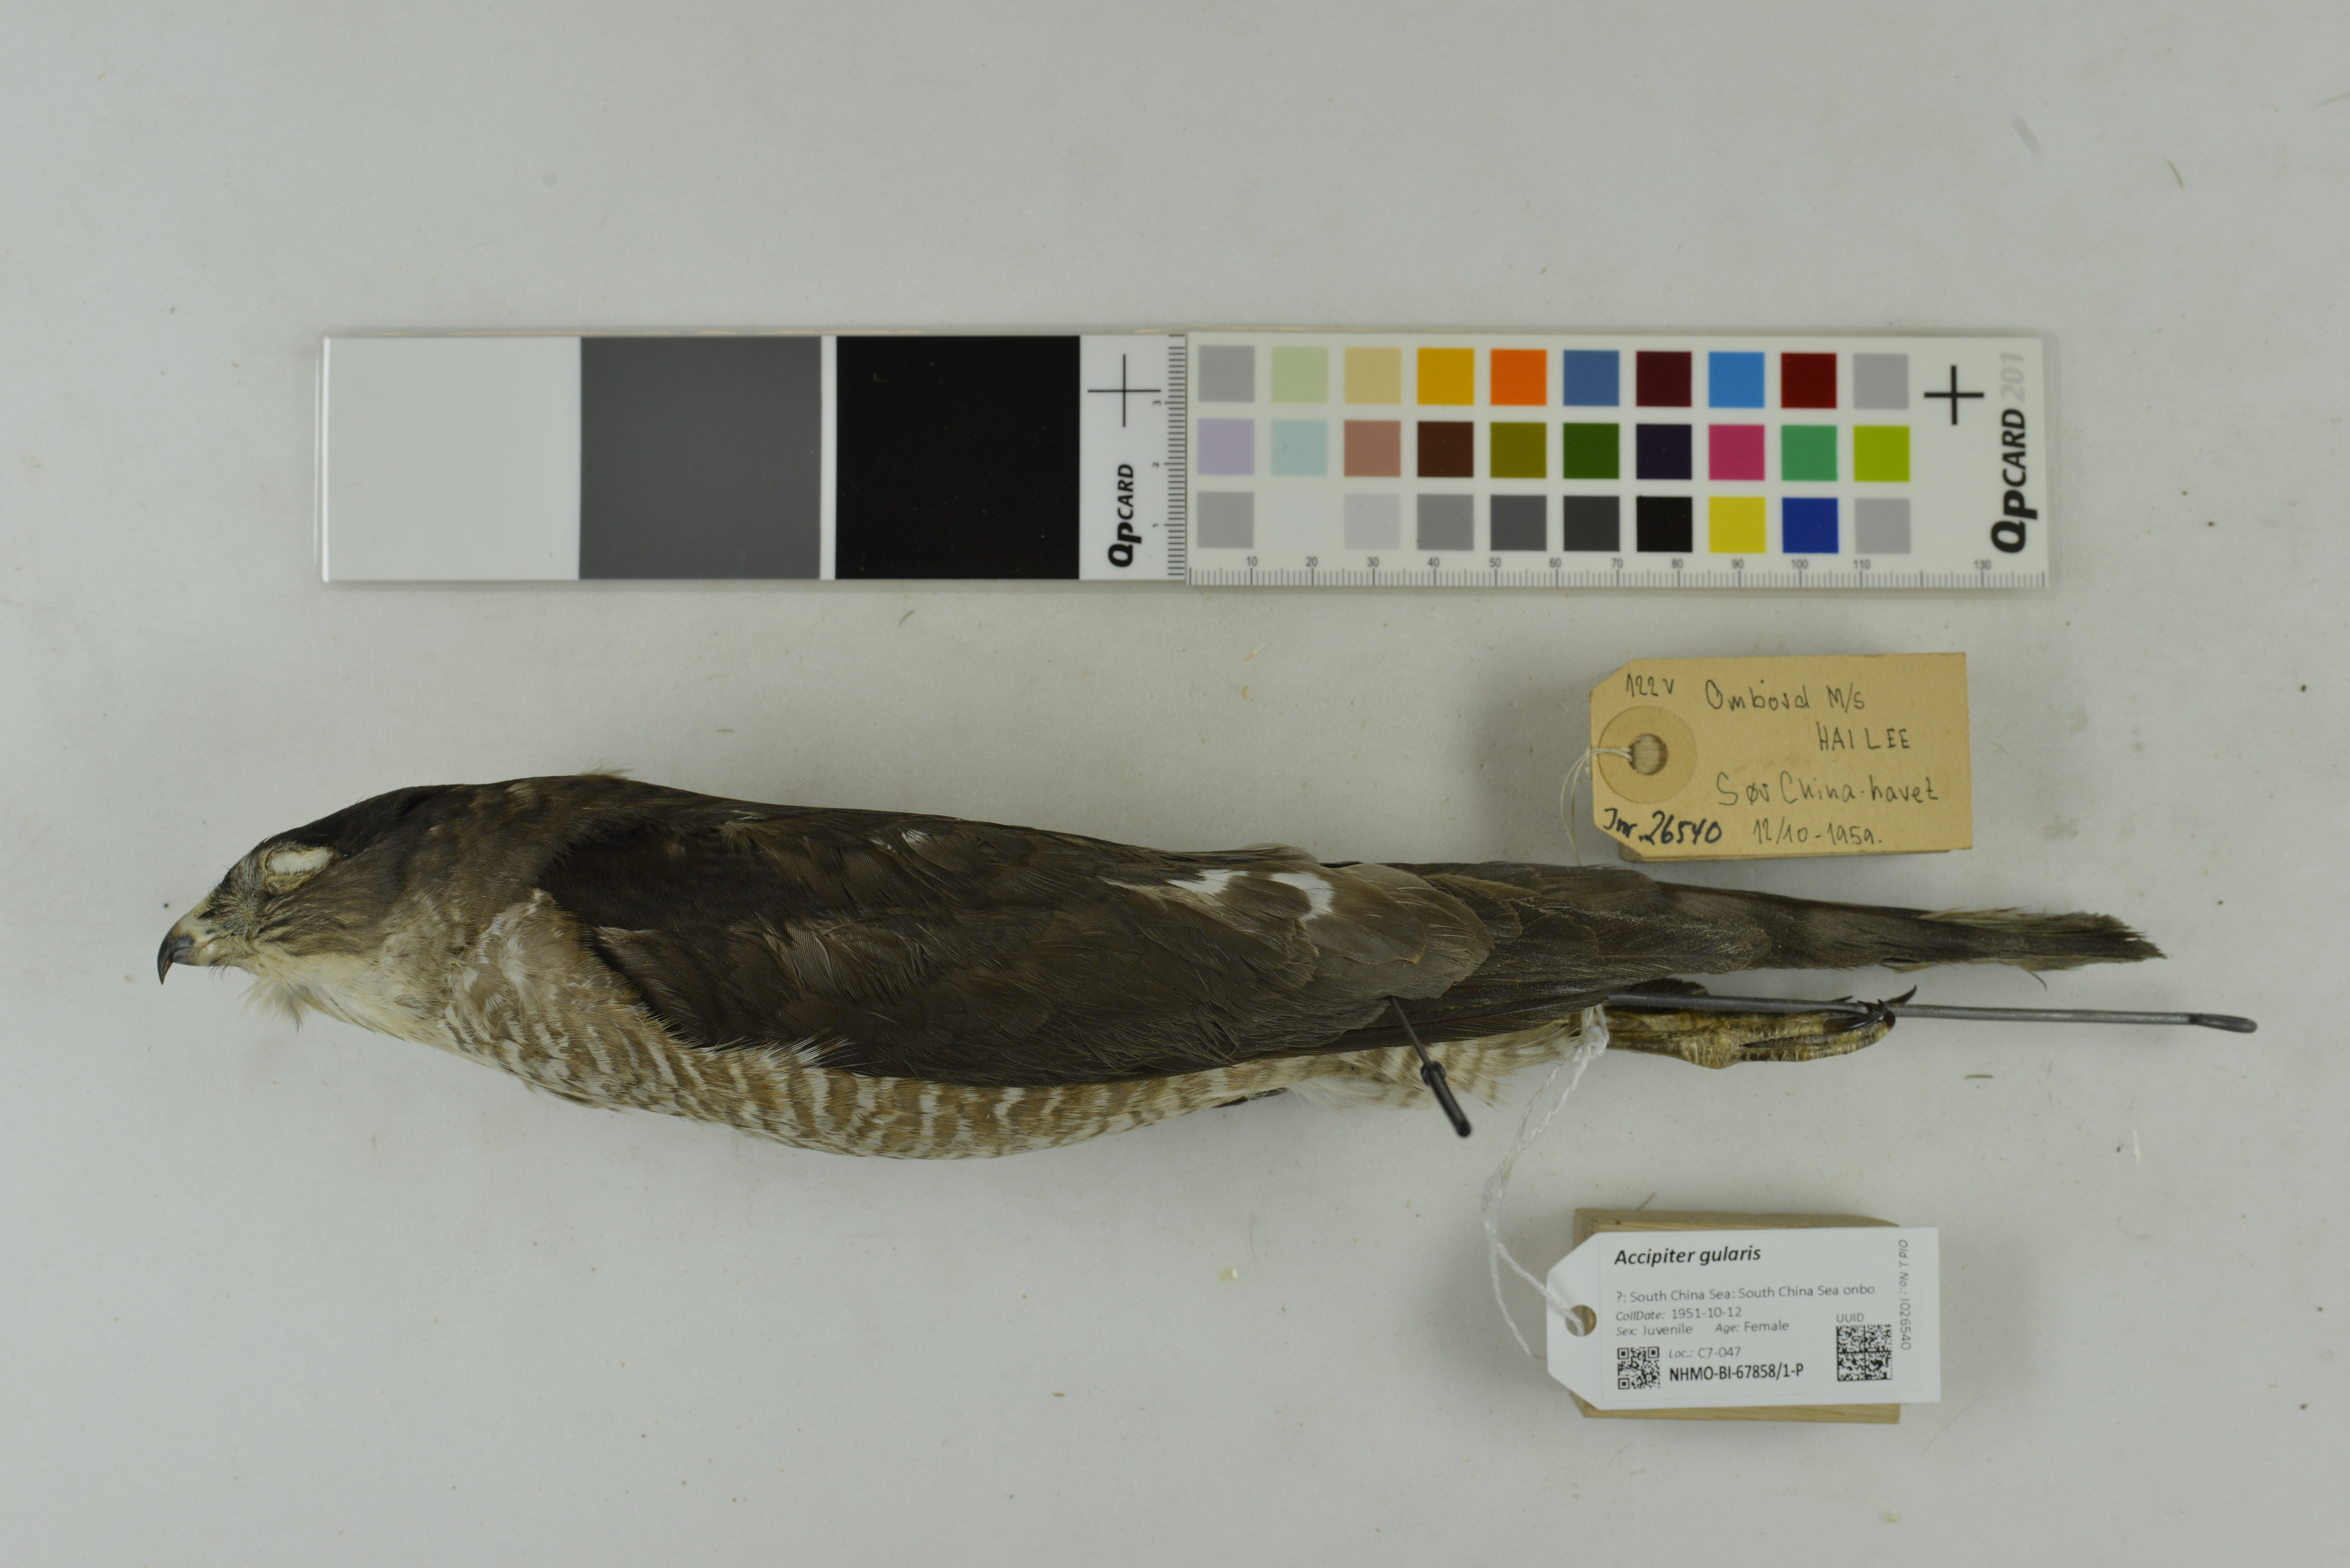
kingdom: Animalia
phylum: Chordata
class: Aves
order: Accipitriformes
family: Accipitridae
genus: Accipiter
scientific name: Accipiter gularis
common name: Japanese sparrowhawk
